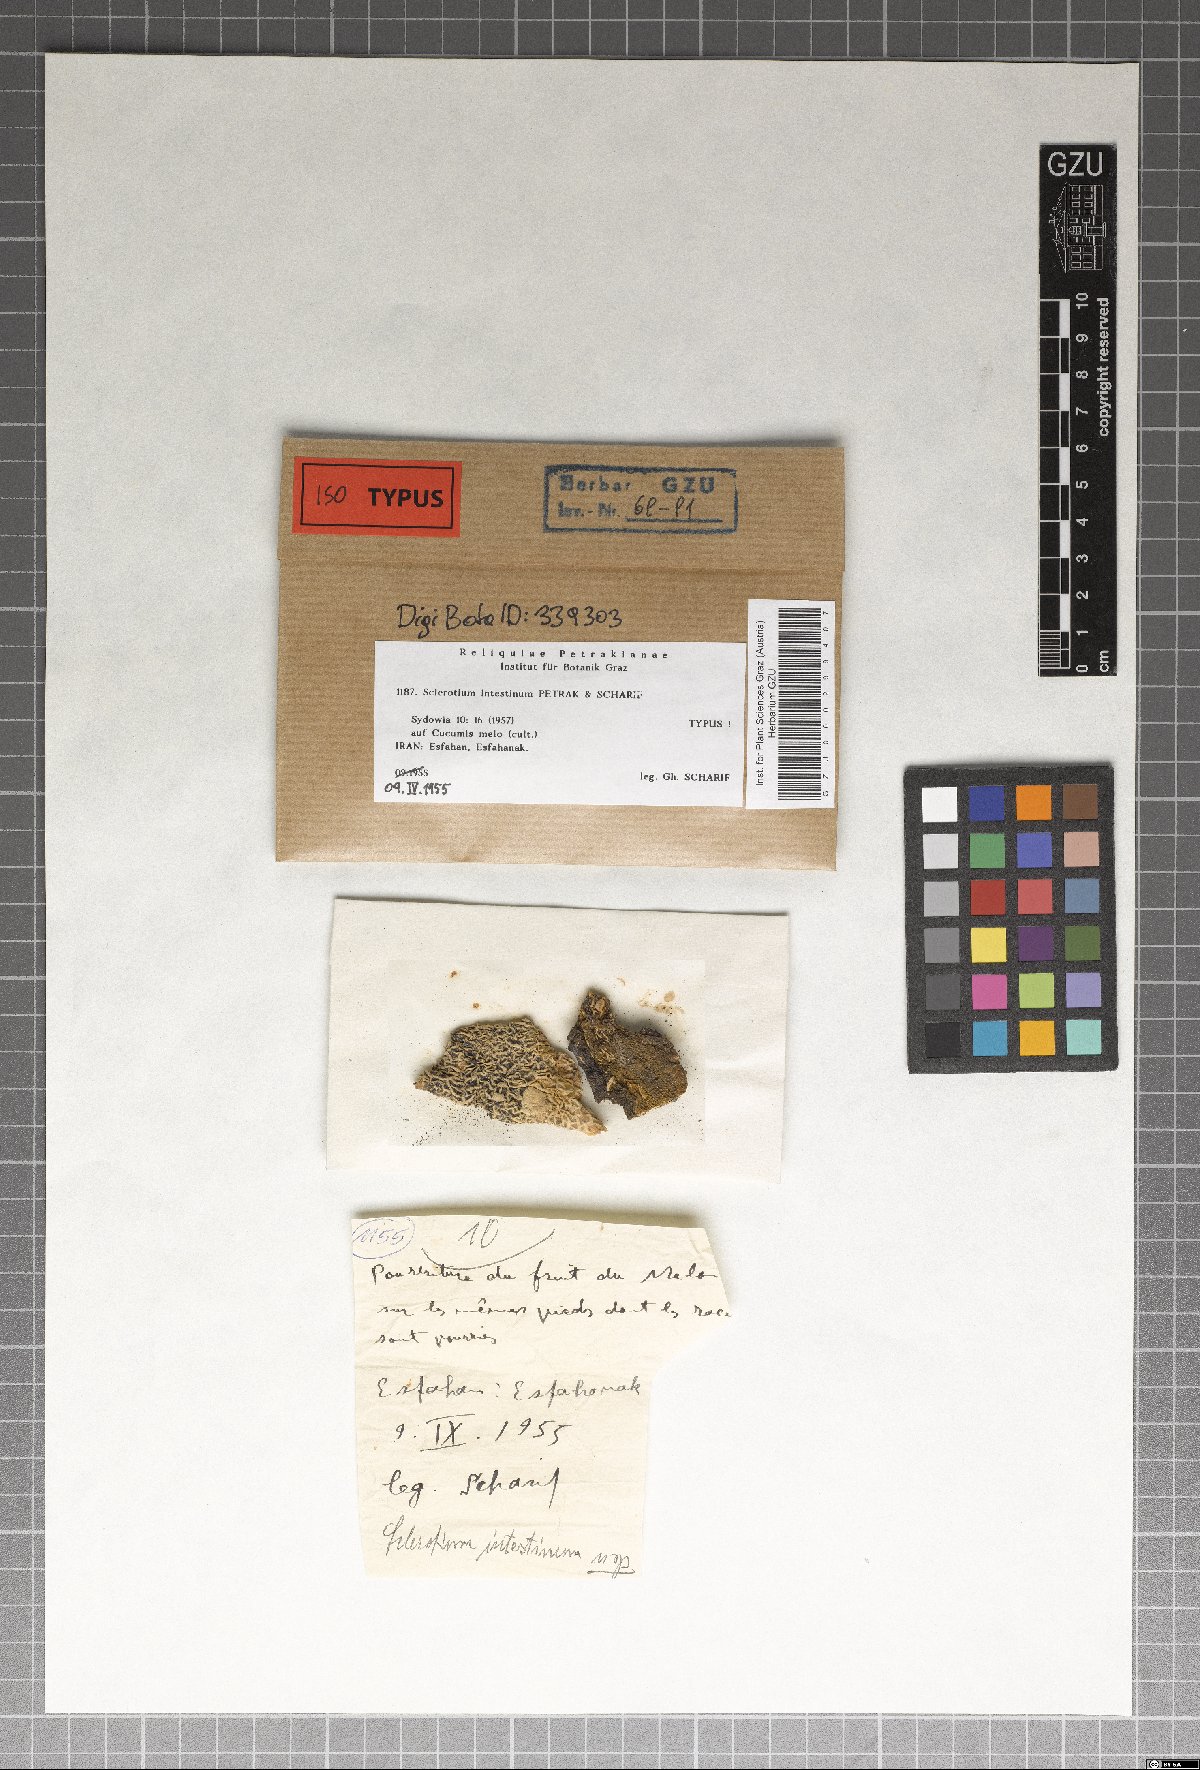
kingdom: Fungi
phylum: Basidiomycota
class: Agaricomycetes
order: Agaricales
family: Typhulaceae
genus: Sclerotium
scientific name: Sclerotium intestinum
